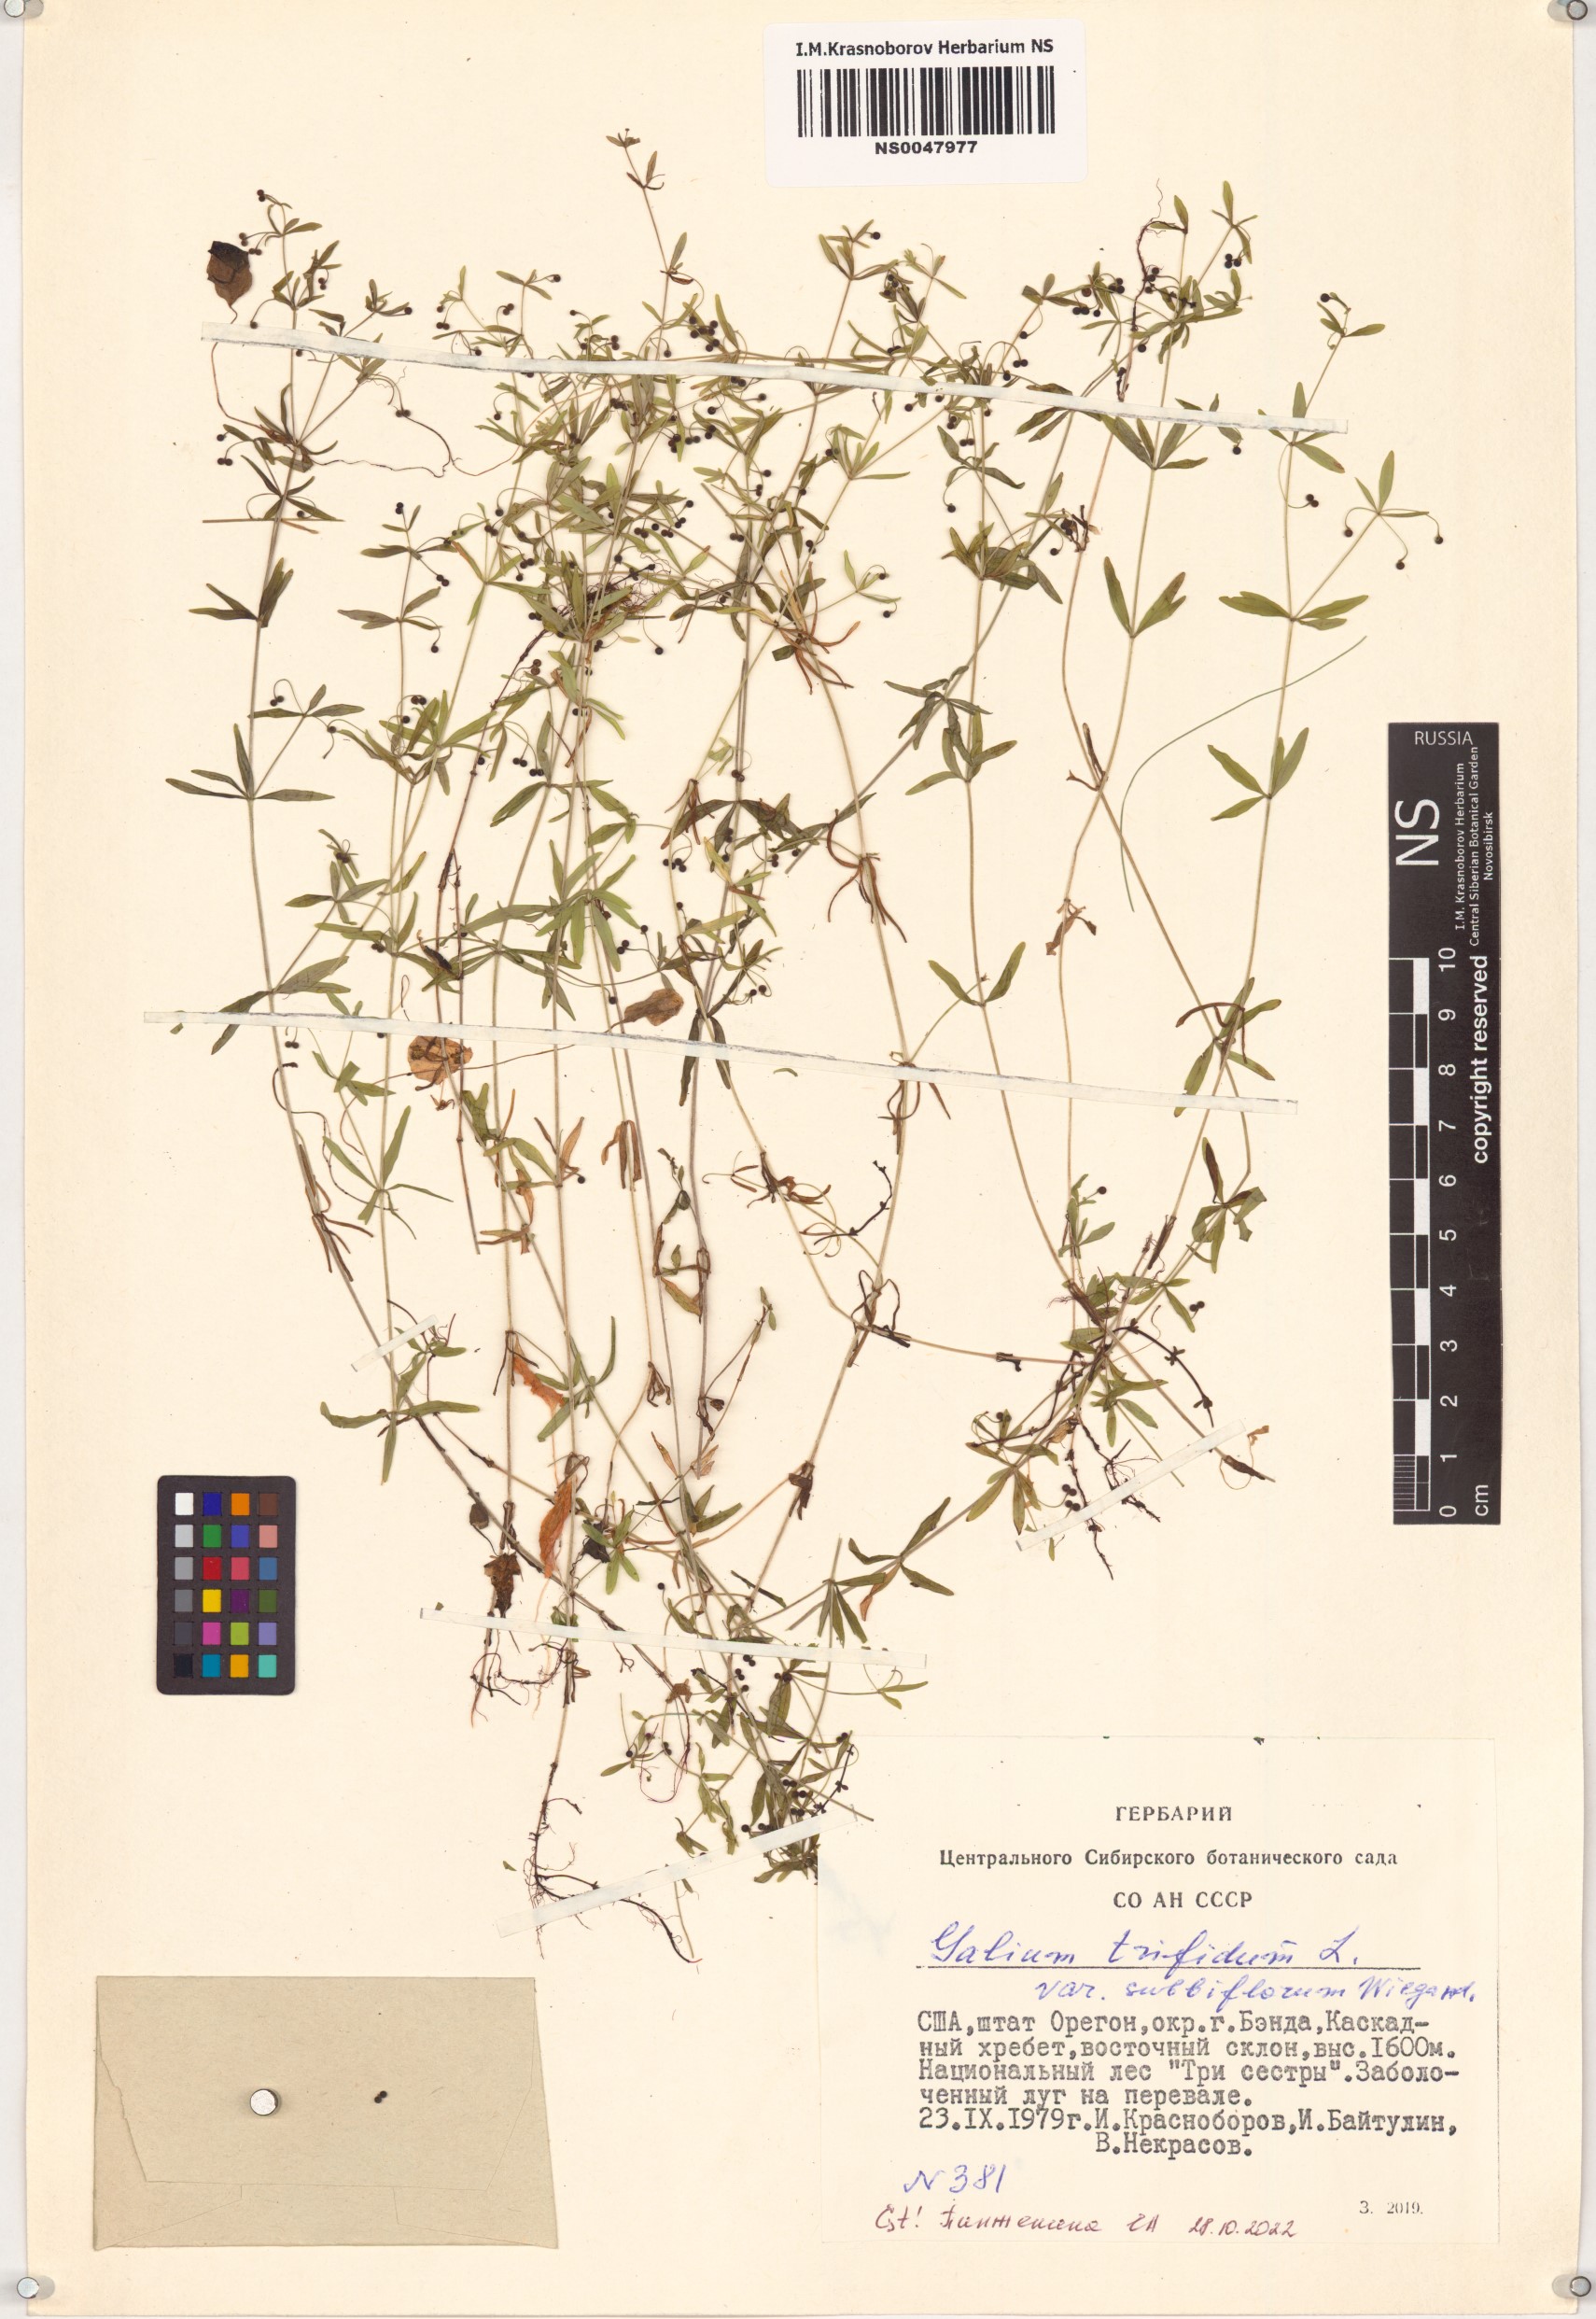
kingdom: Plantae
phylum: Tracheophyta
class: Magnoliopsida
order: Gentianales
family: Rubiaceae
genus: Galium
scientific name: Galium trifidum
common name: Small bedstraw
